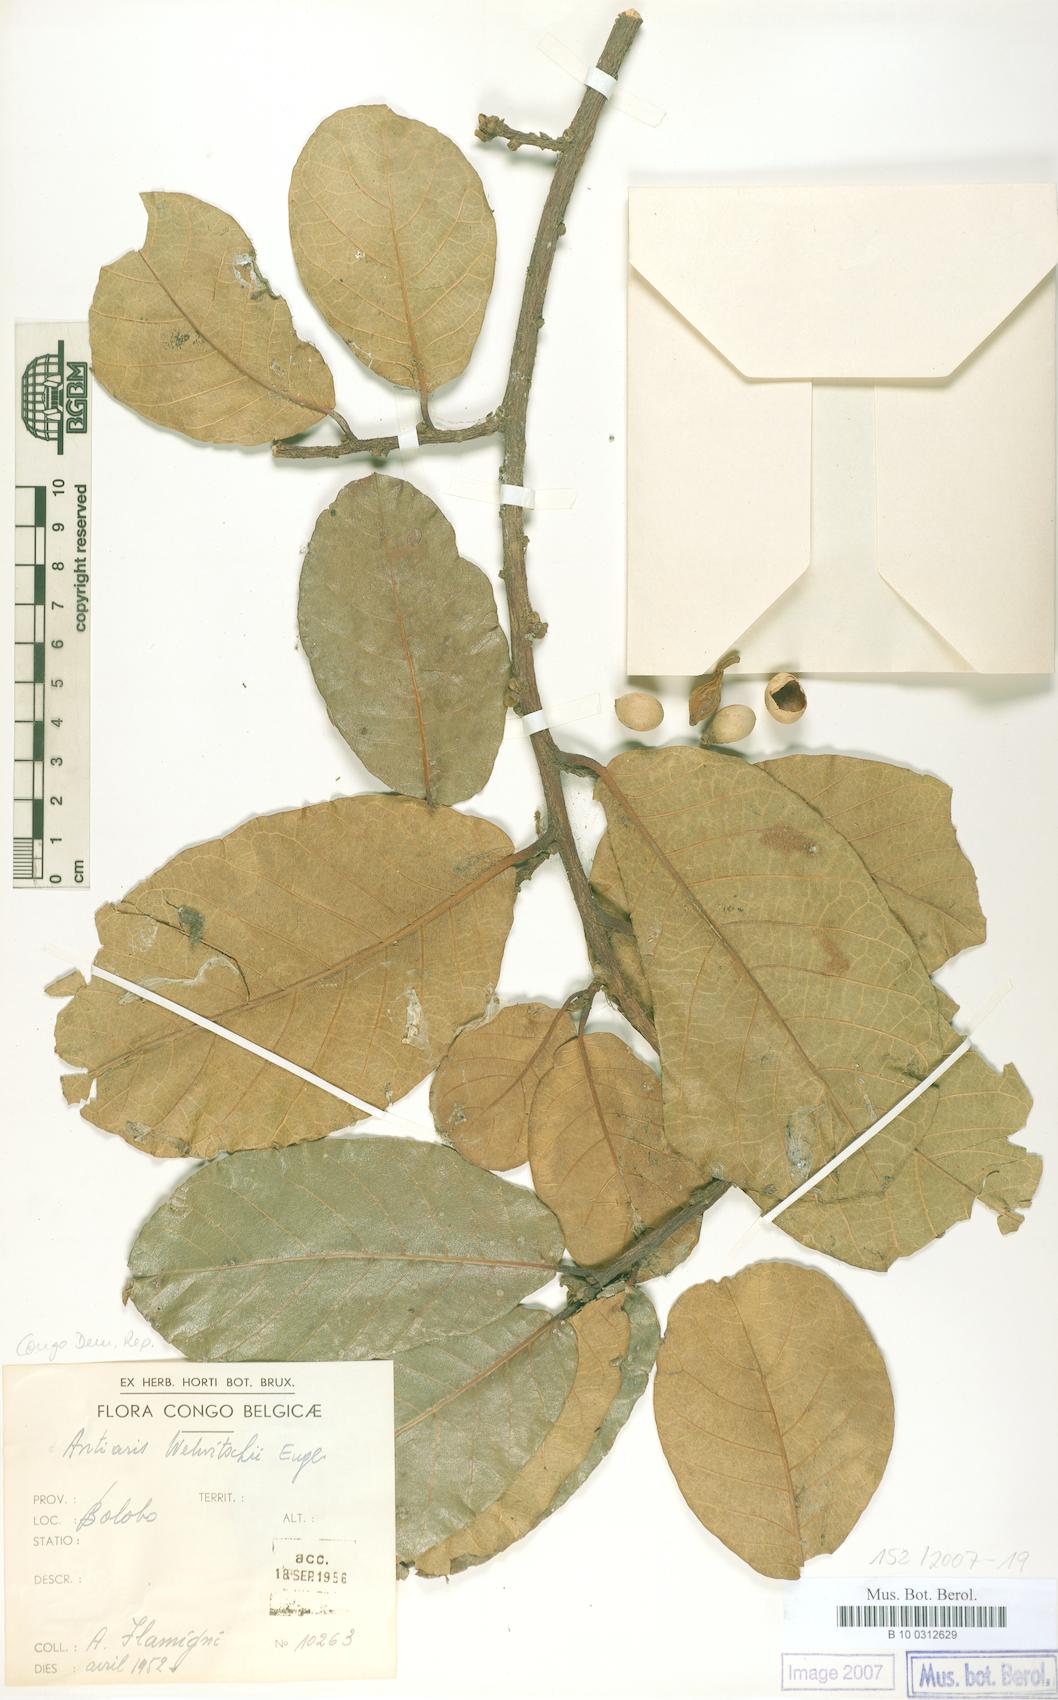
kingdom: Plantae
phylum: Tracheophyta
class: Magnoliopsida
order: Rosales
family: Moraceae
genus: Antiaris
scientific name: Antiaris toxicaria
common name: Sackingtree
